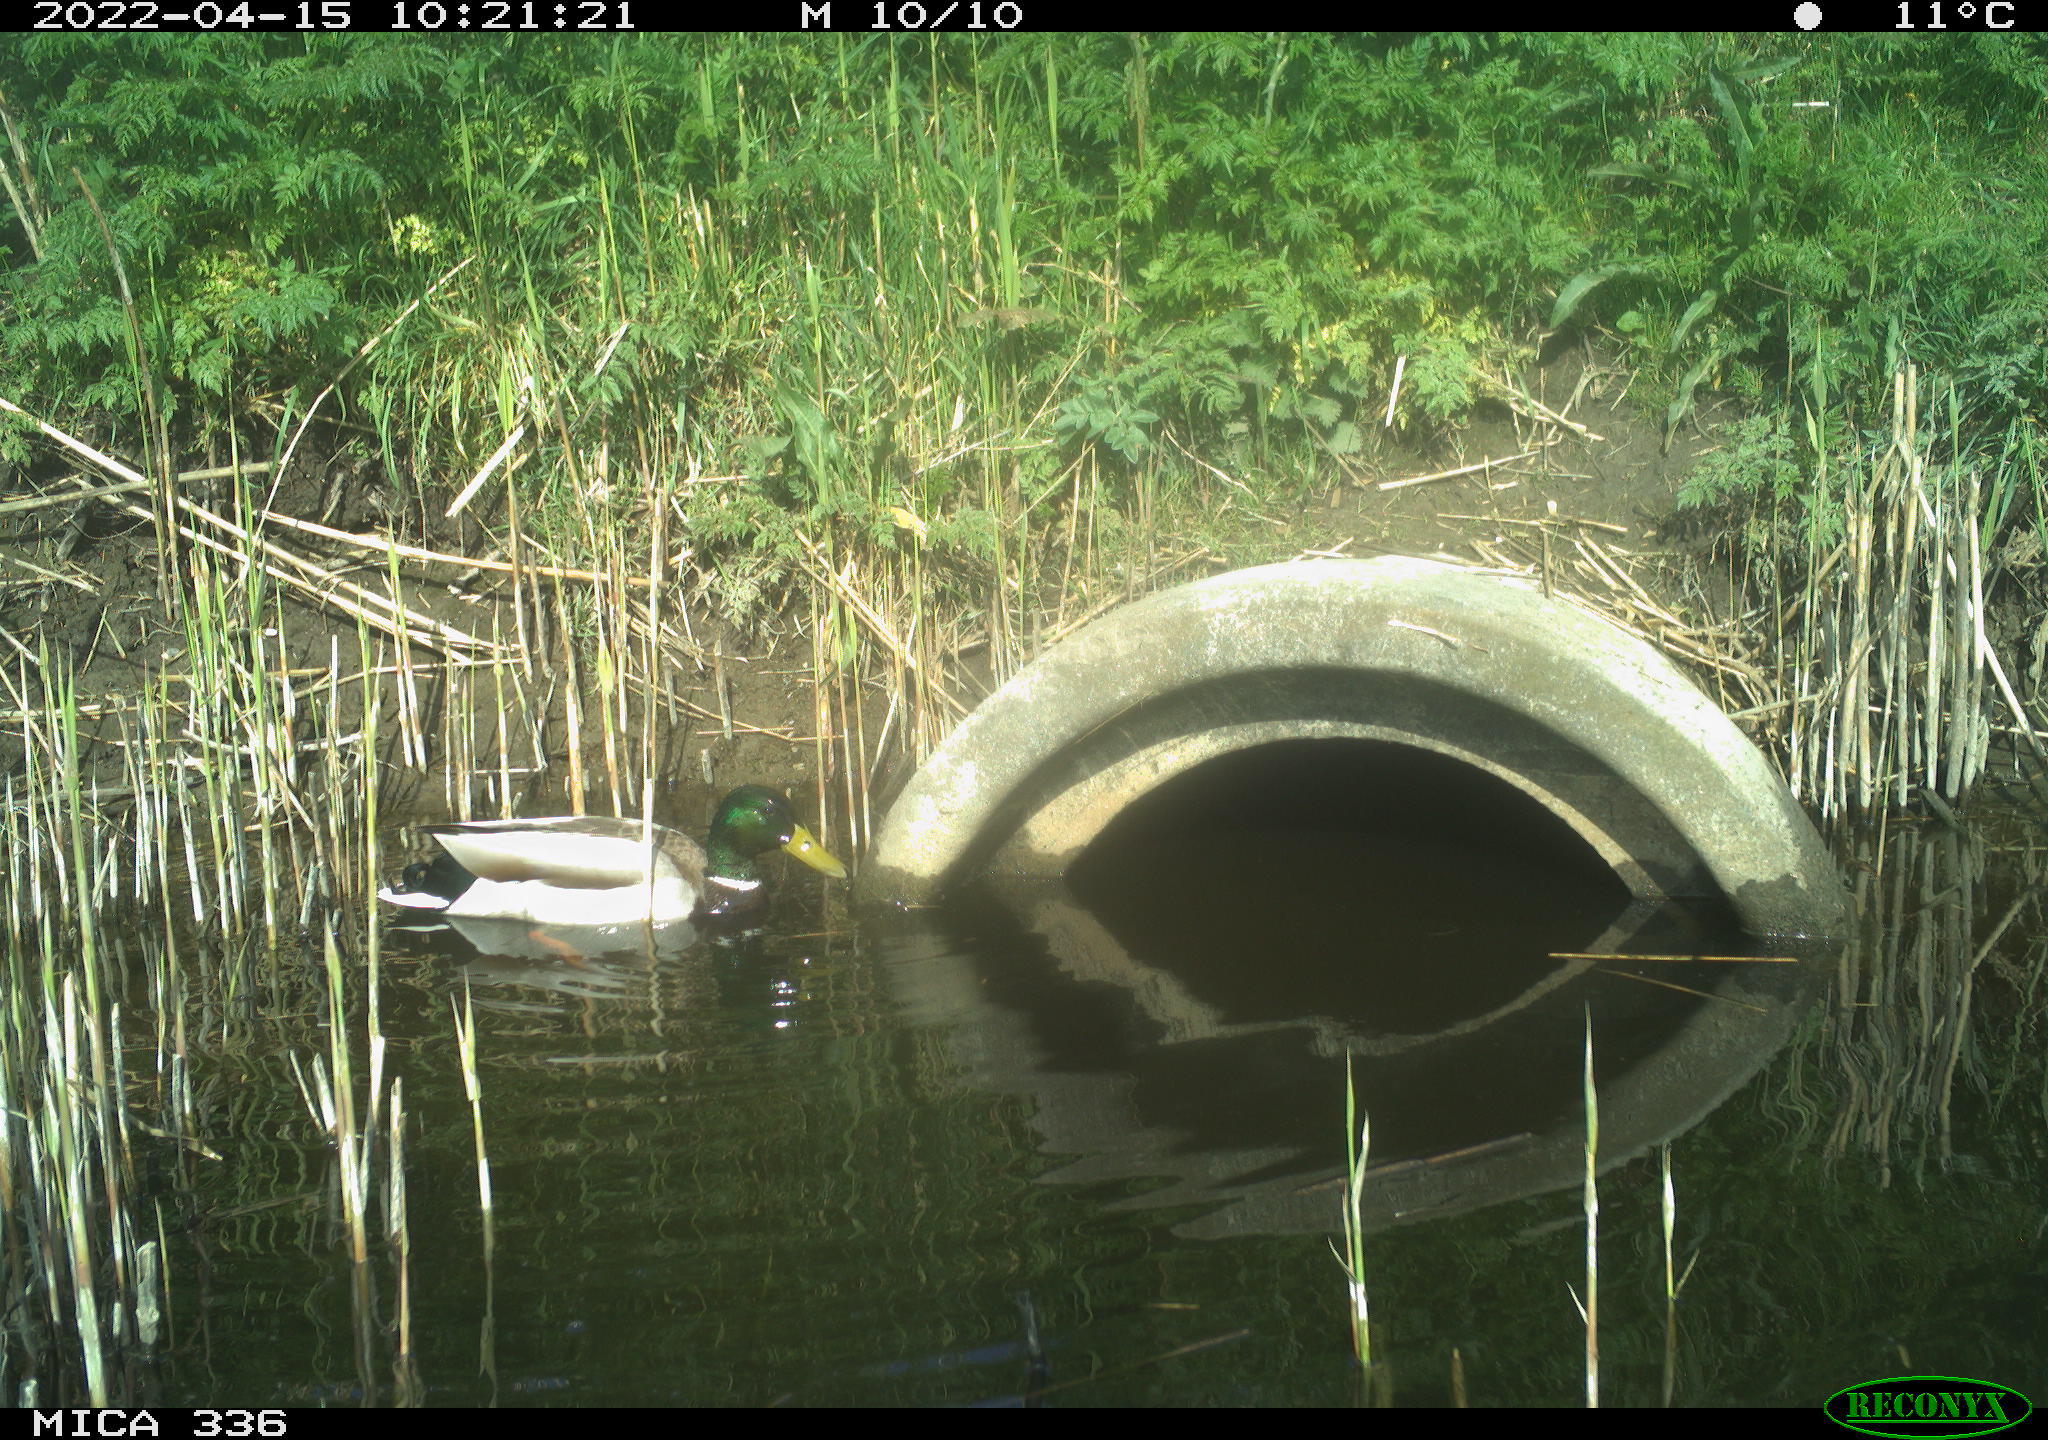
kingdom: Animalia
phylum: Chordata
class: Aves
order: Anseriformes
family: Anatidae
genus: Anas
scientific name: Anas platyrhynchos
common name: Mallard
